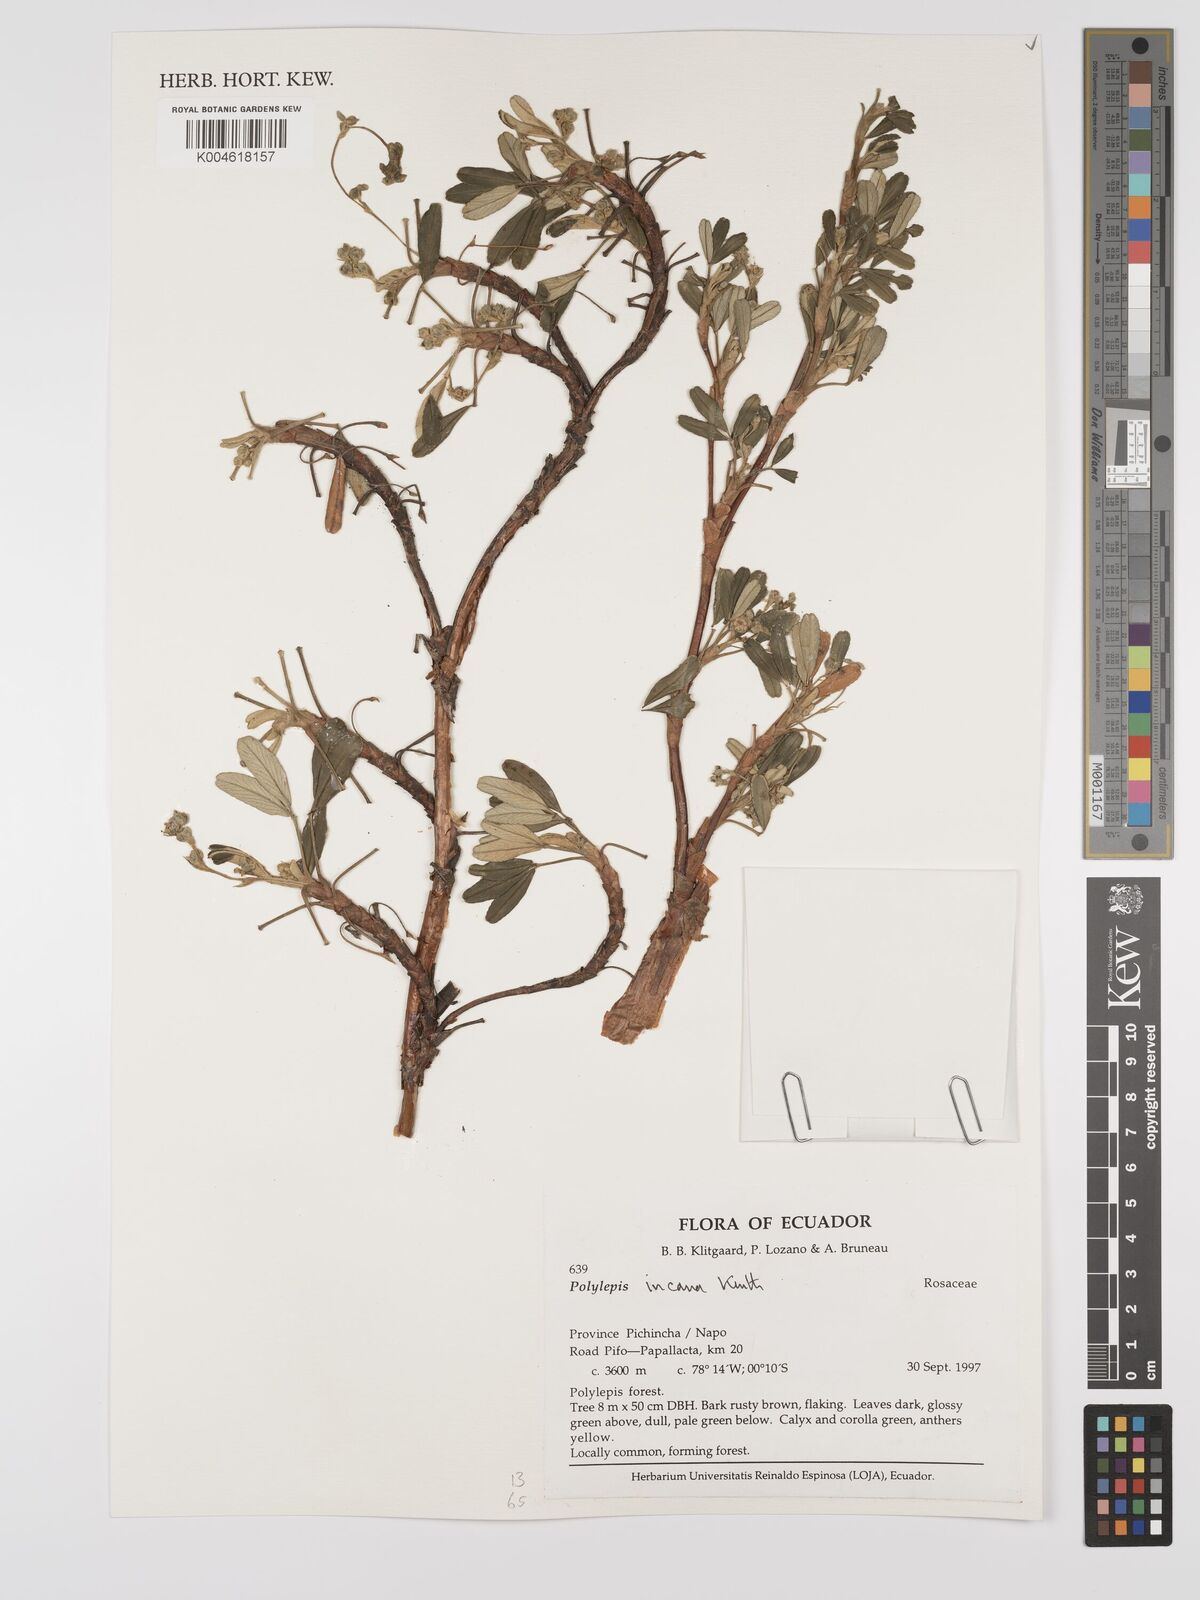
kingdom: Plantae
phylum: Tracheophyta
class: Magnoliopsida
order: Rosales
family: Rosaceae
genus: Polylepis
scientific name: Polylepis incana
